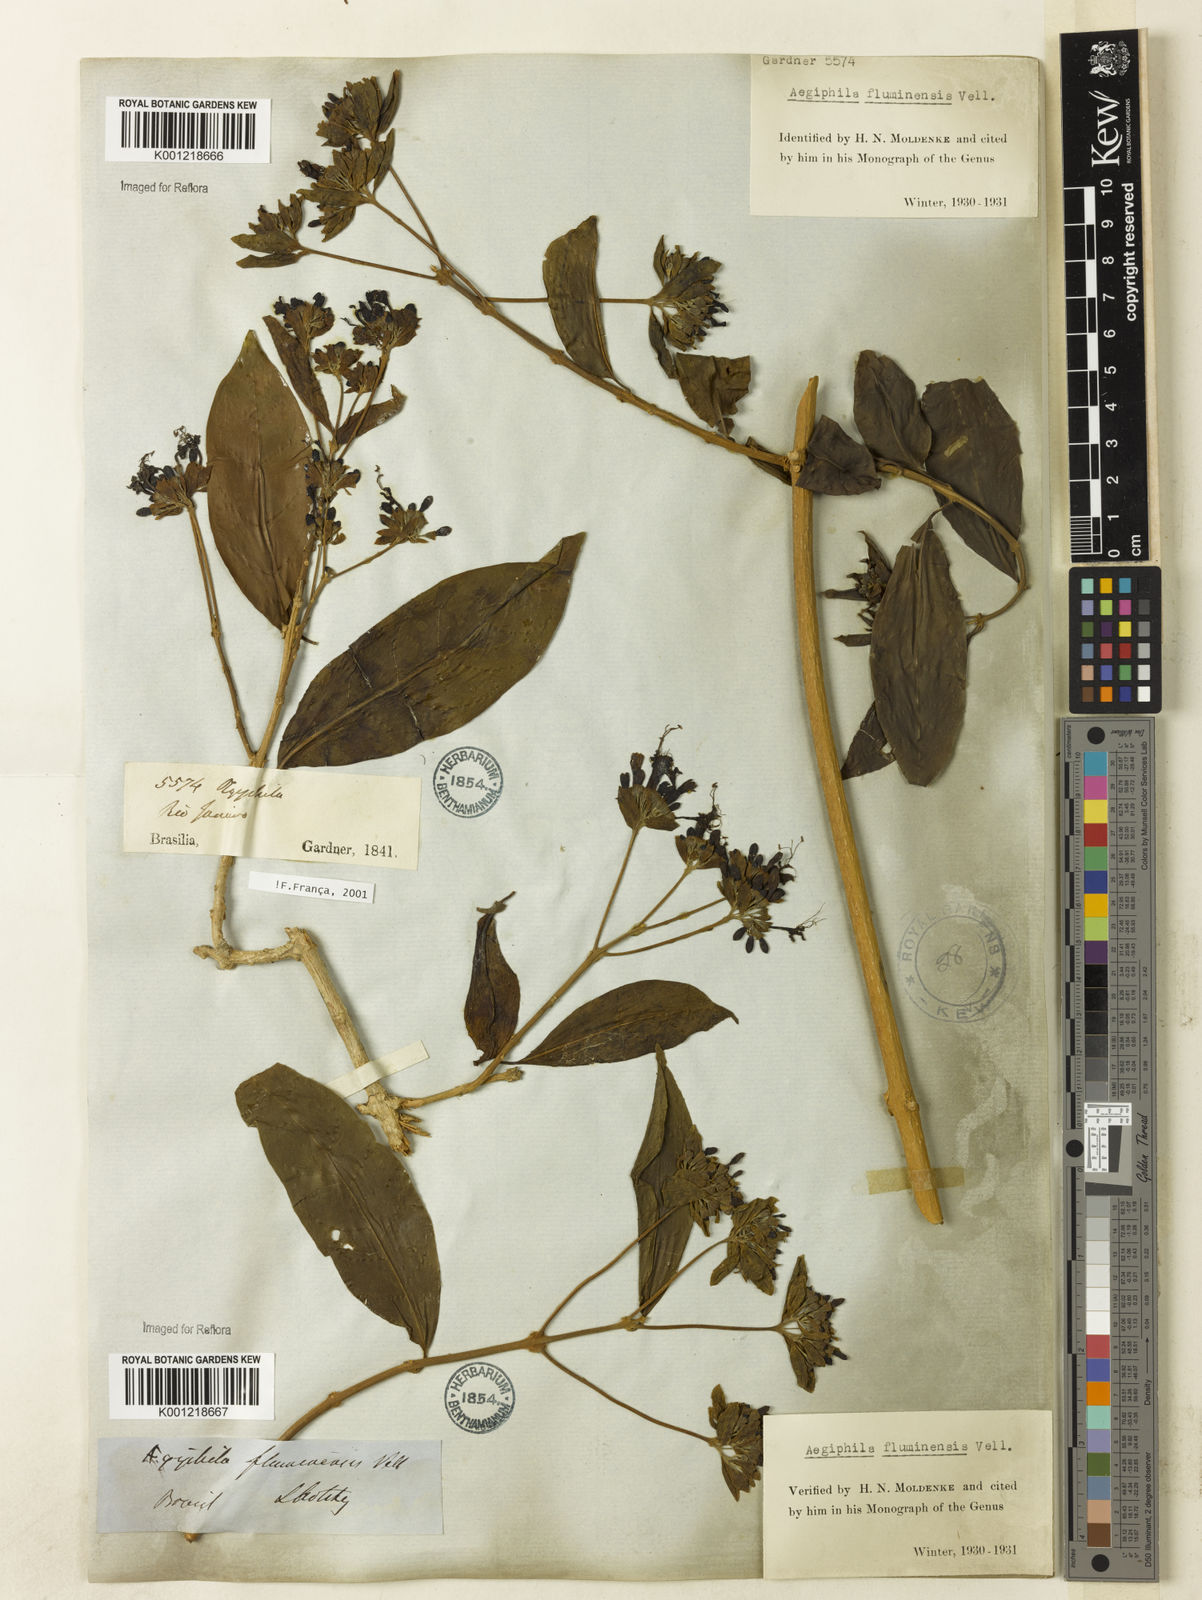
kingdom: Plantae
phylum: Tracheophyta
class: Magnoliopsida
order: Lamiales
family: Lamiaceae
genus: Aegiphila
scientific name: Aegiphila fluminensis
